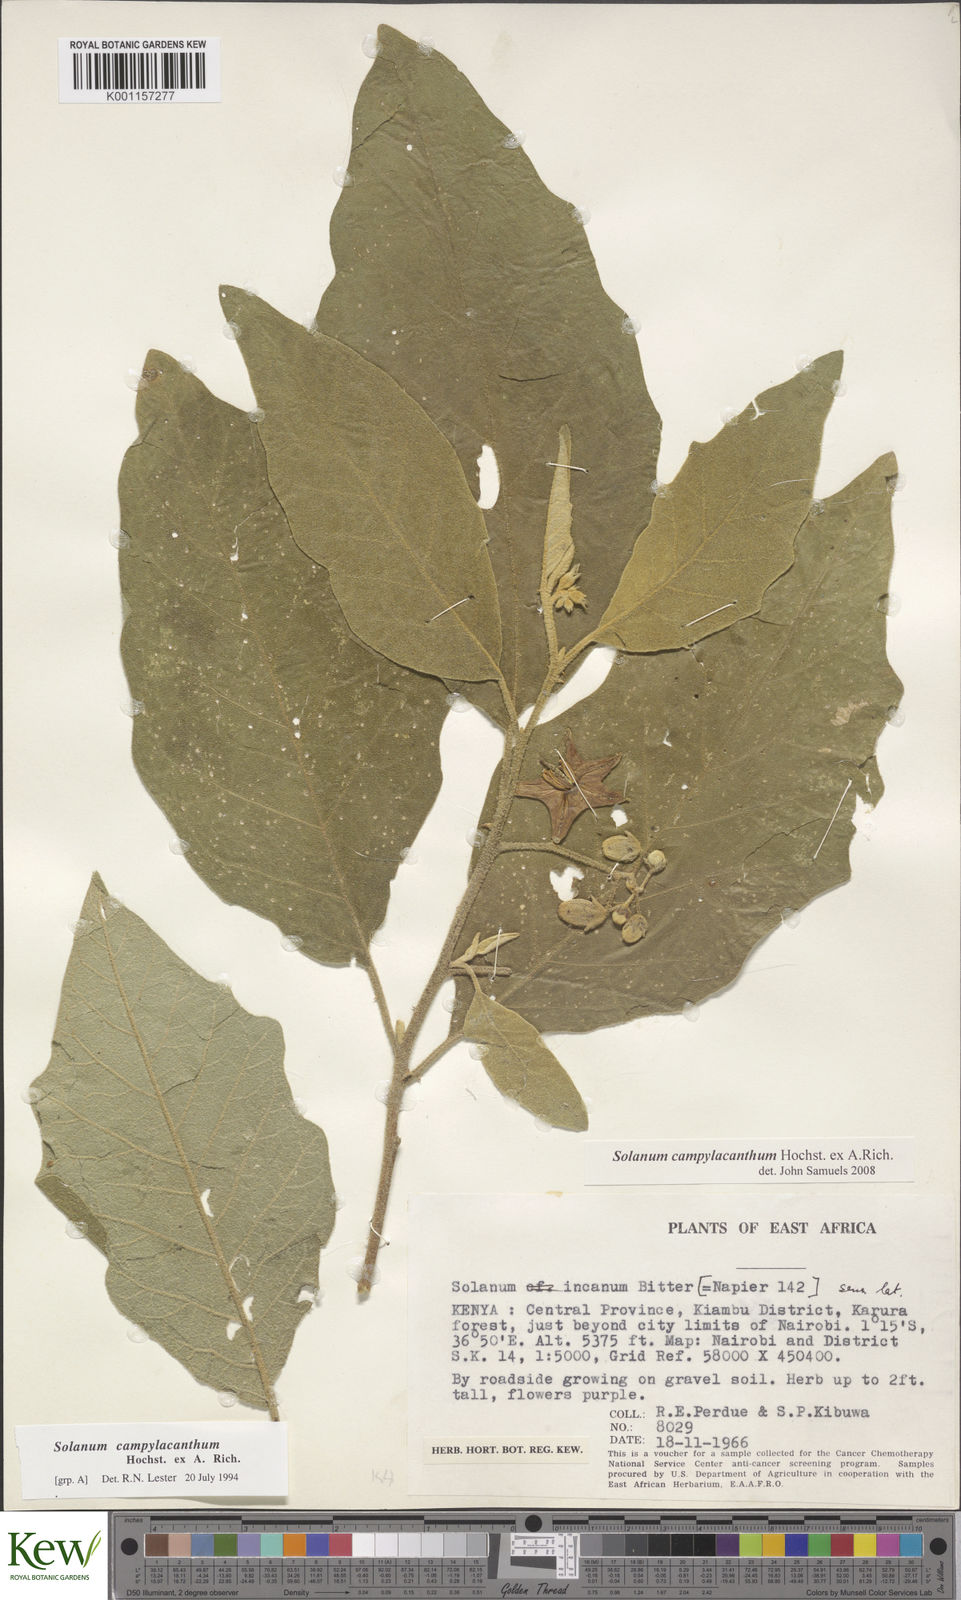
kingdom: Plantae
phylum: Tracheophyta
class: Magnoliopsida
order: Solanales
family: Solanaceae
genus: Solanum
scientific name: Solanum campylacanthum
